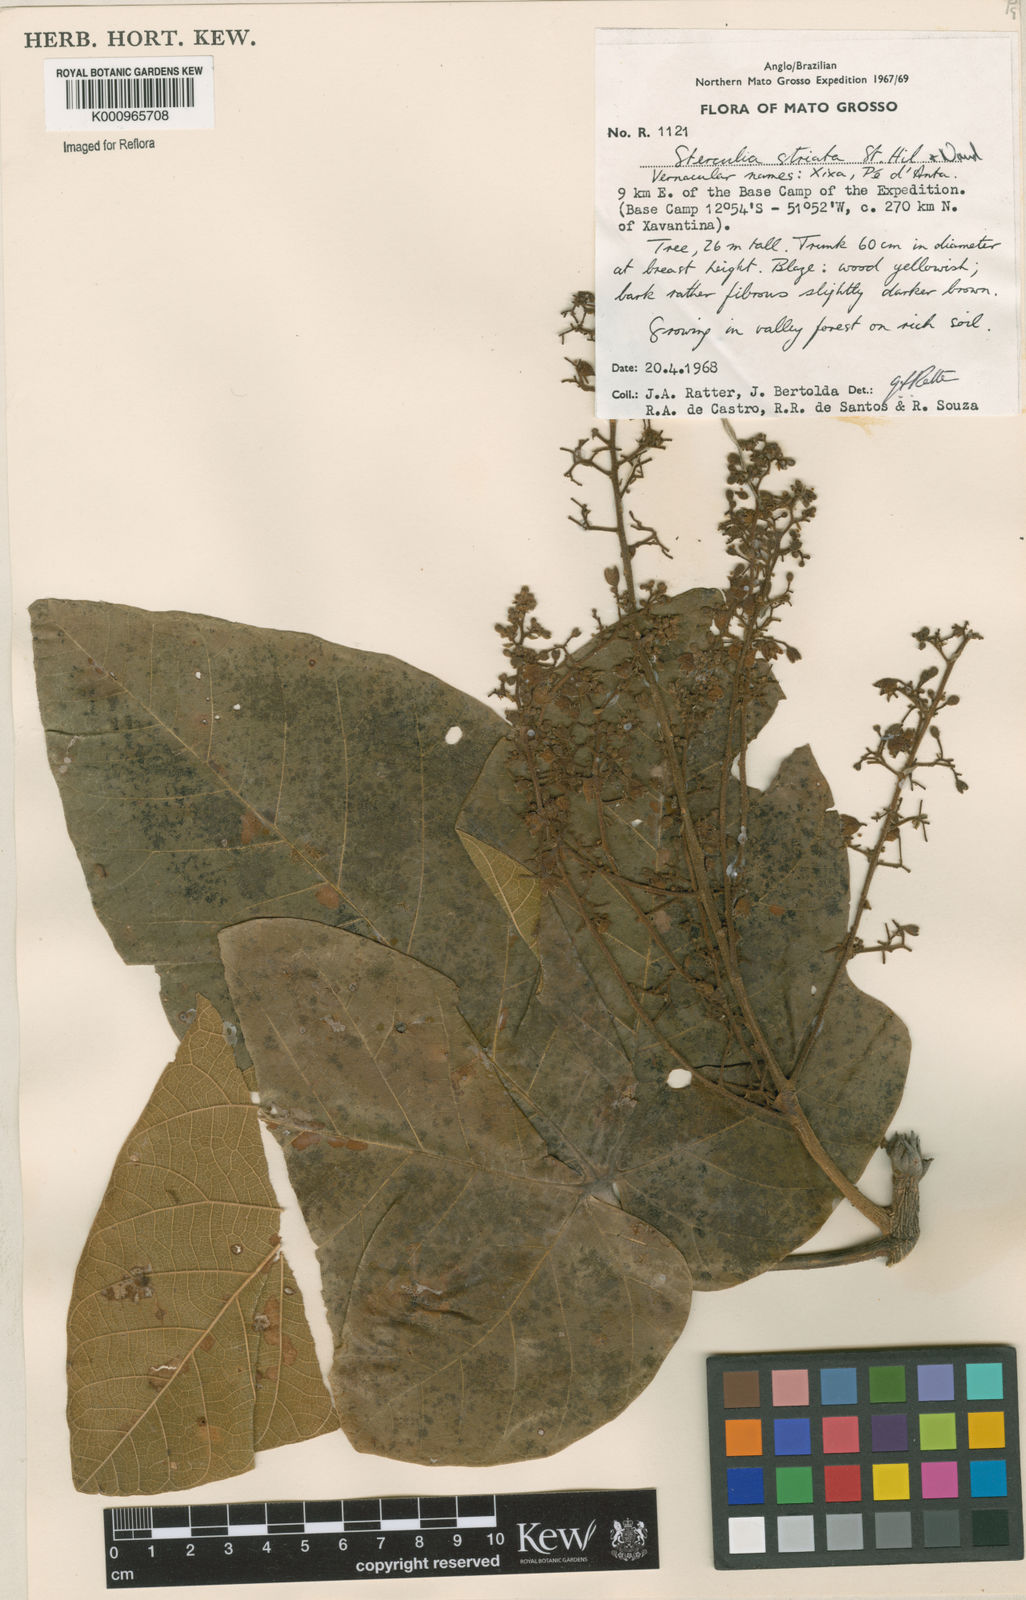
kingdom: Plantae
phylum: Tracheophyta
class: Magnoliopsida
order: Malvales
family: Malvaceae
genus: Sterculia
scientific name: Sterculia striata
